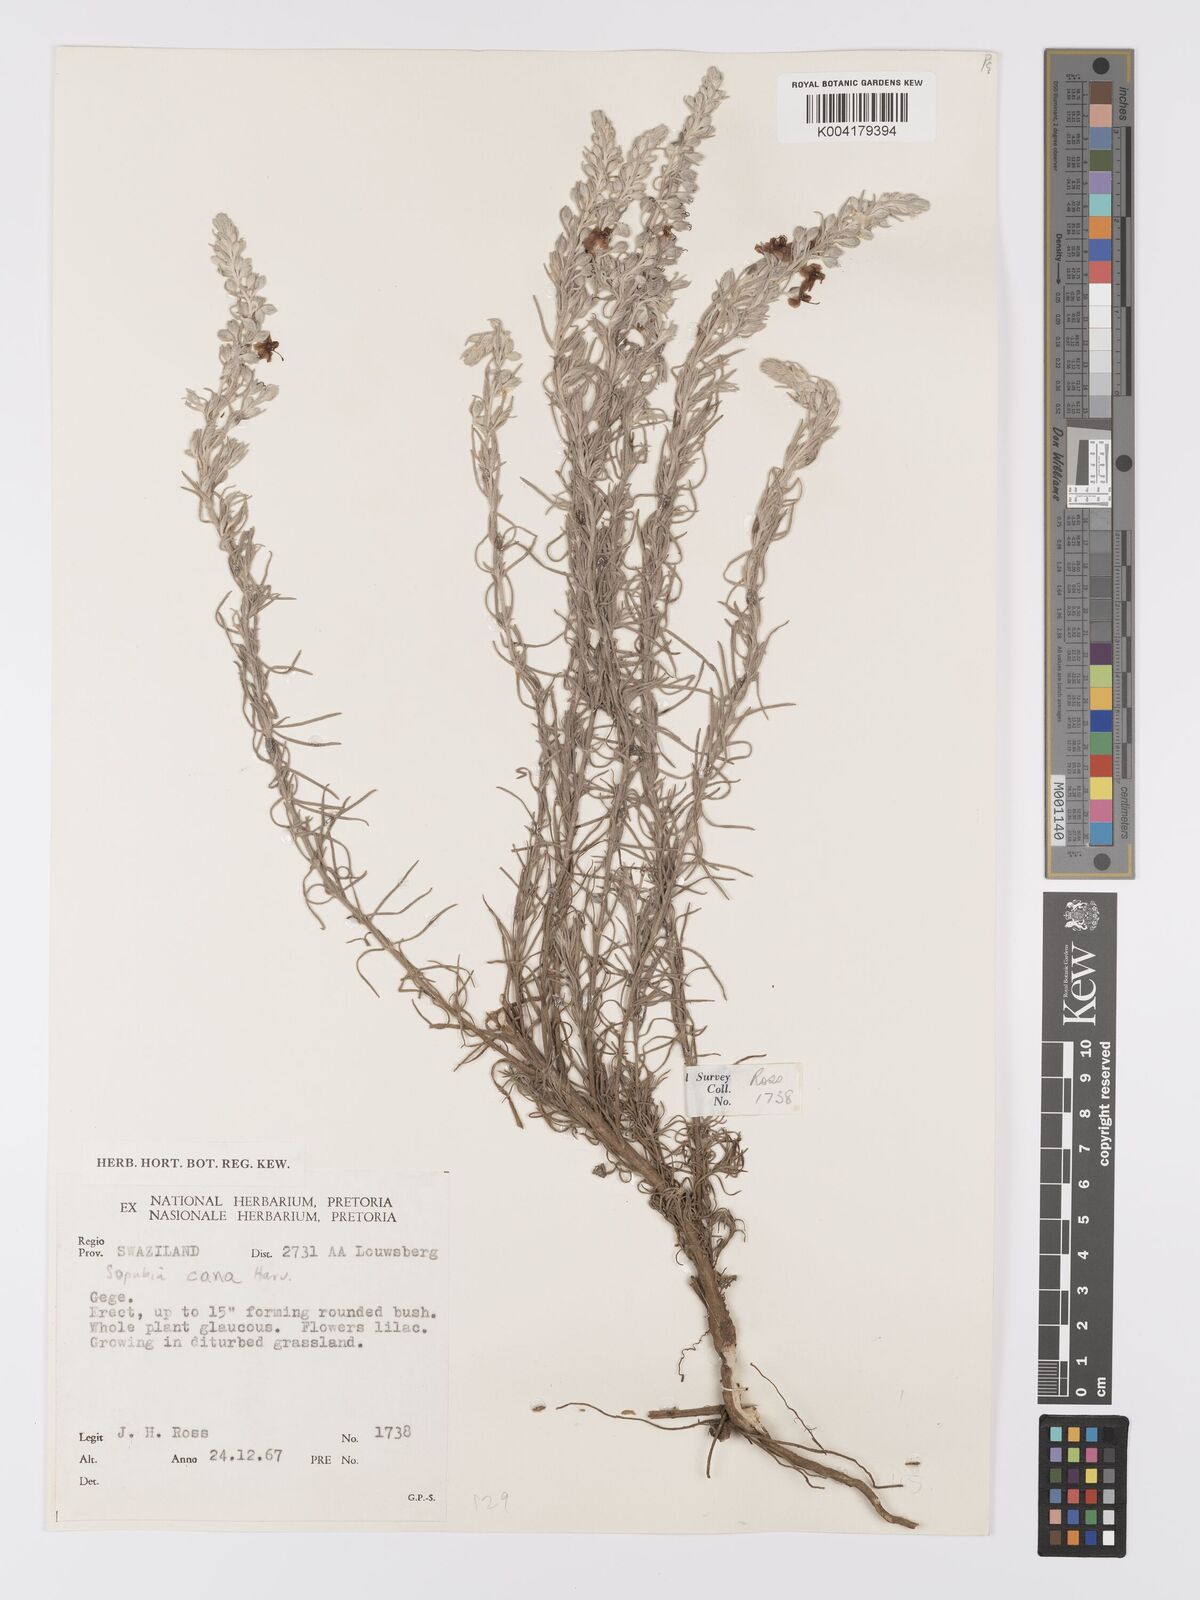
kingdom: Plantae
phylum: Tracheophyta
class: Magnoliopsida
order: Lamiales
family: Orobanchaceae
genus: Sopubia
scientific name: Sopubia cana
